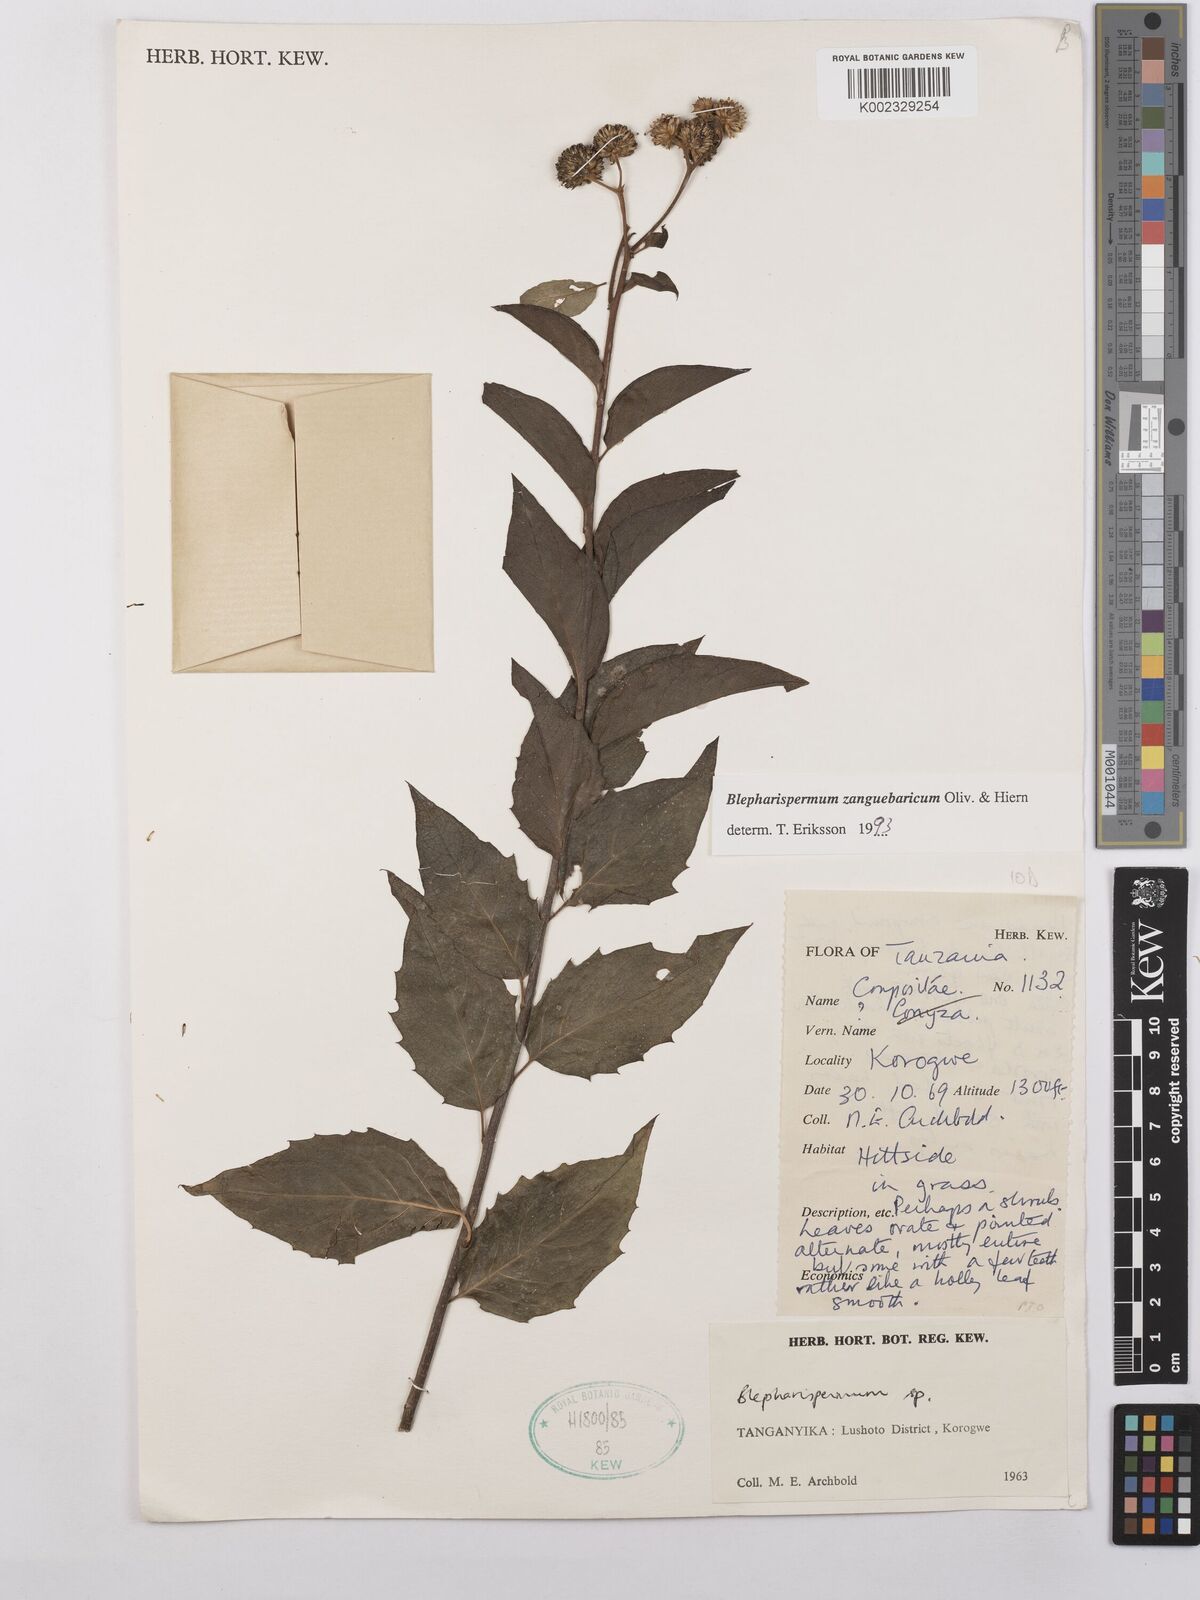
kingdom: Plantae
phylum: Tracheophyta
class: Magnoliopsida
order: Asterales
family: Asteraceae
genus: Blepharispermum
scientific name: Blepharispermum zanguebaricum
